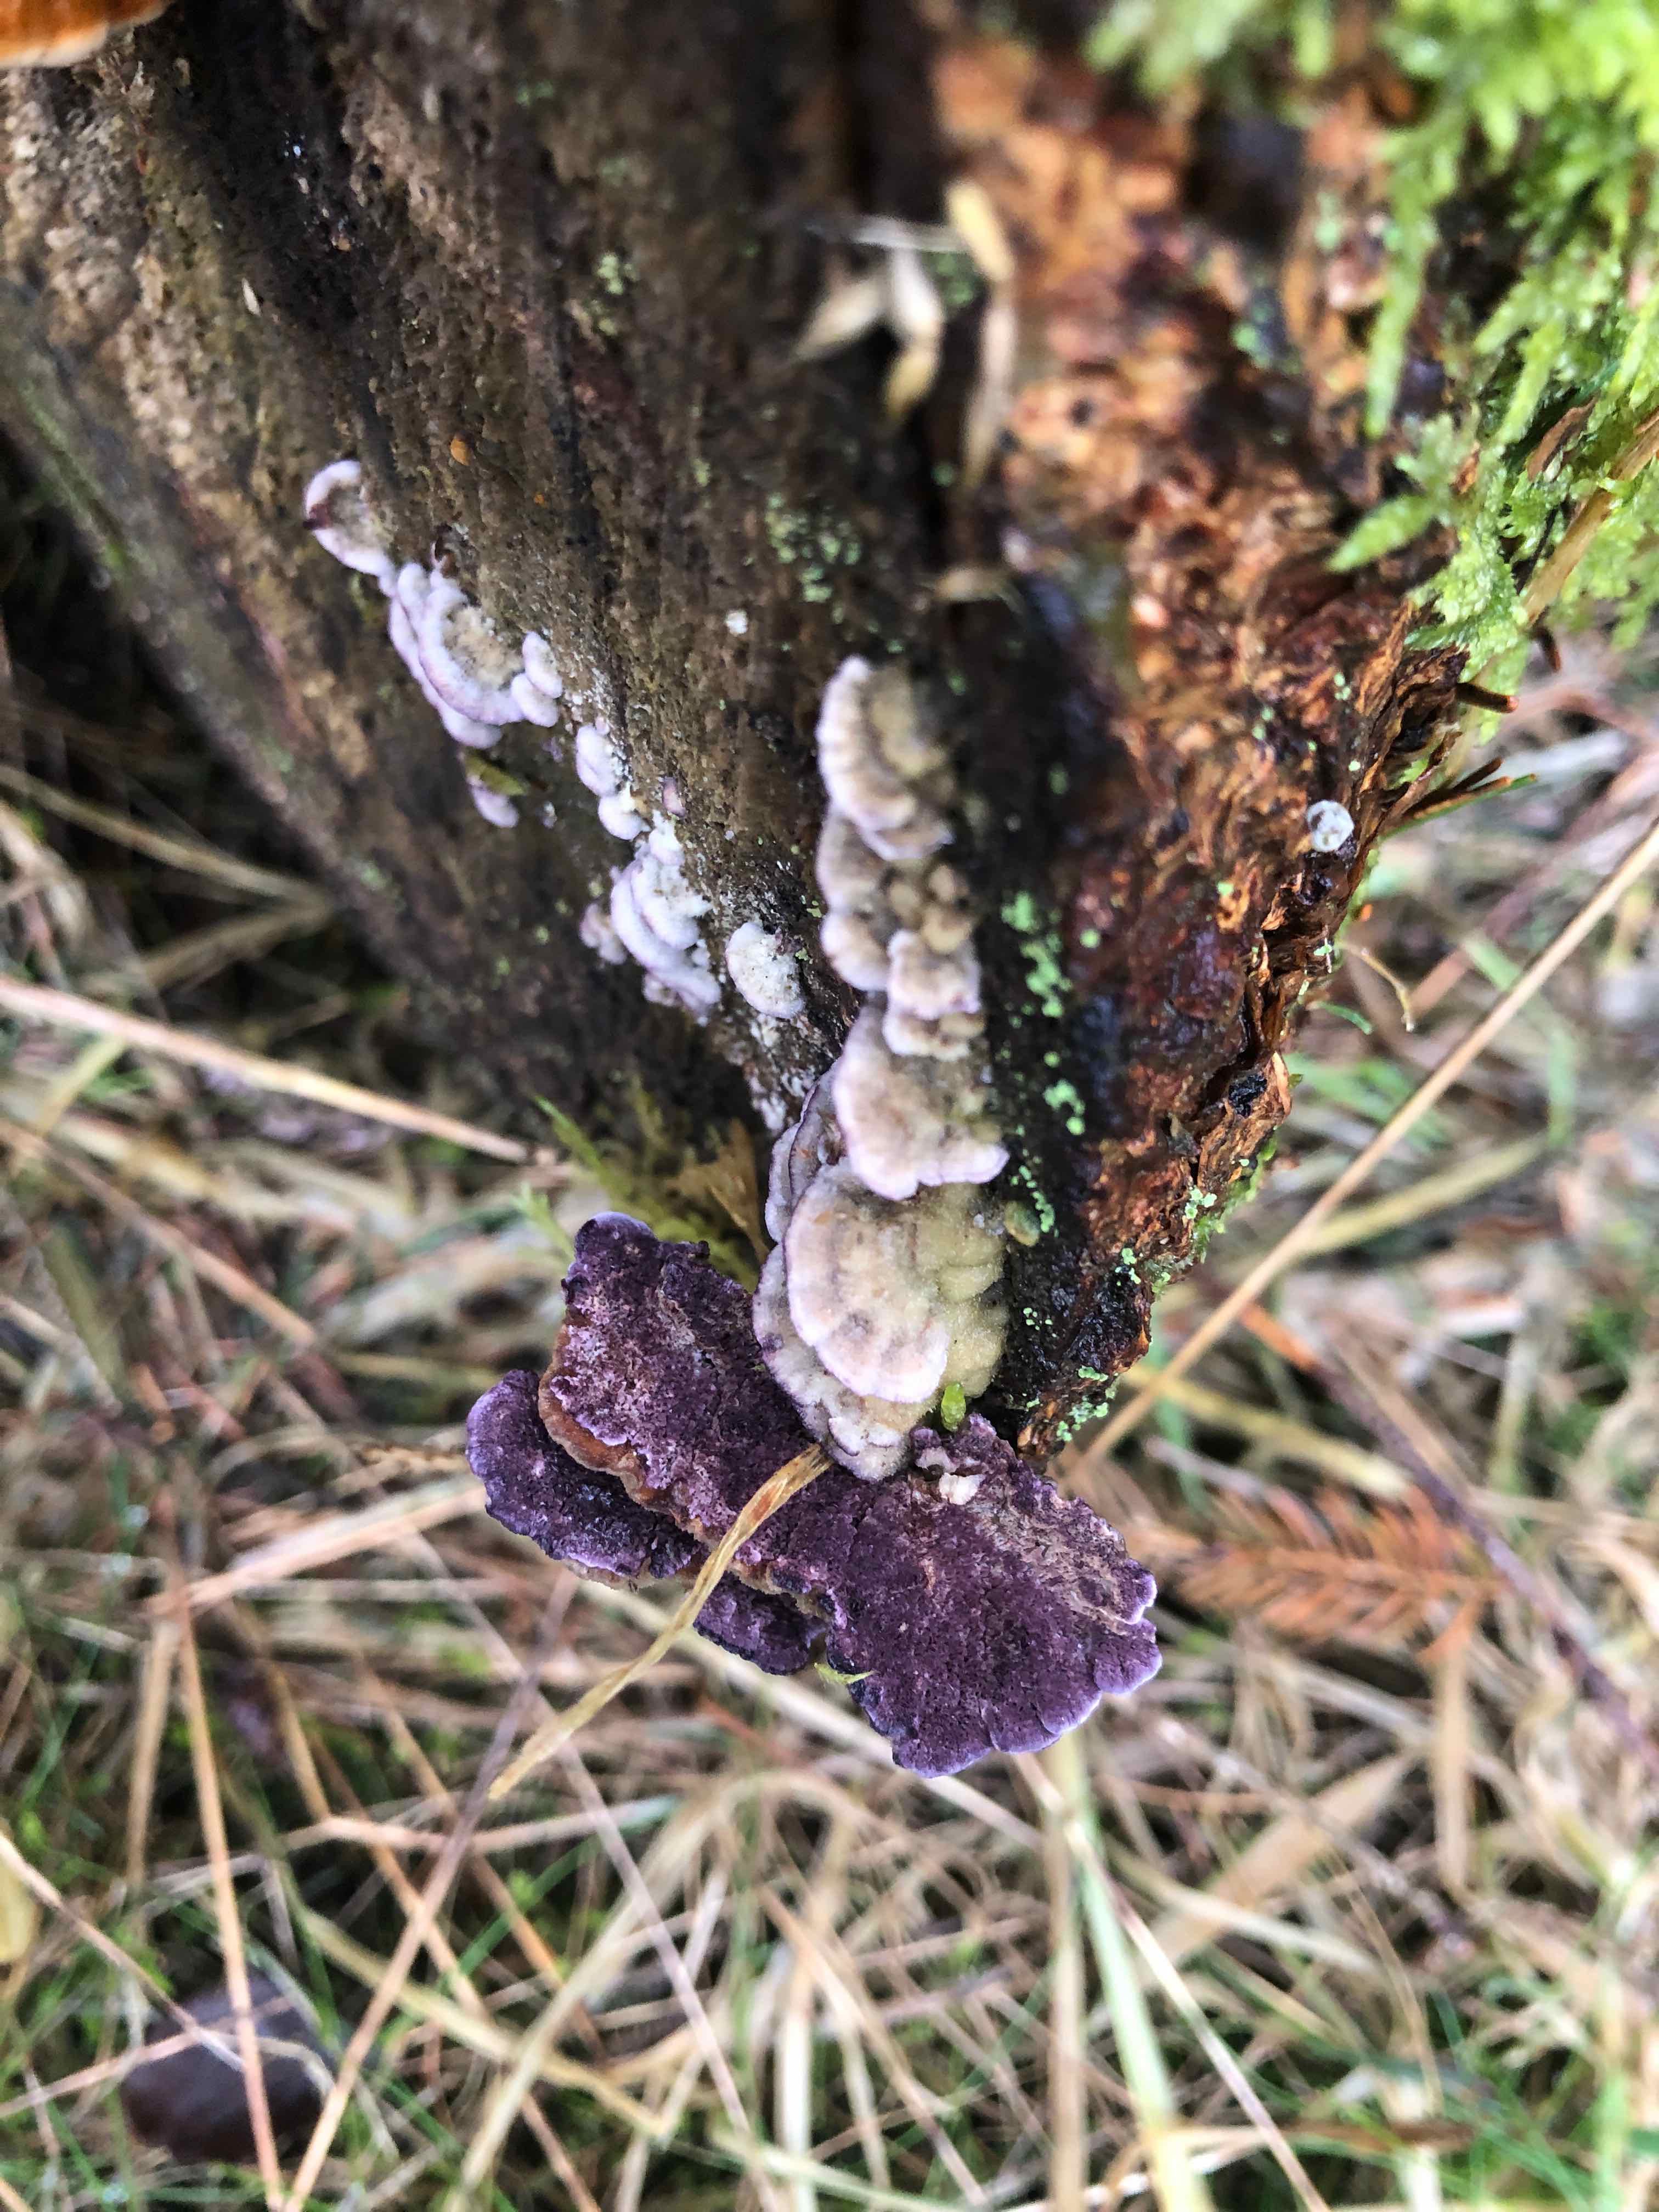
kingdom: Fungi
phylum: Basidiomycota
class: Agaricomycetes
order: Hymenochaetales
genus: Trichaptum
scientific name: Trichaptum abietinum
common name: almindelig violporesvamp
